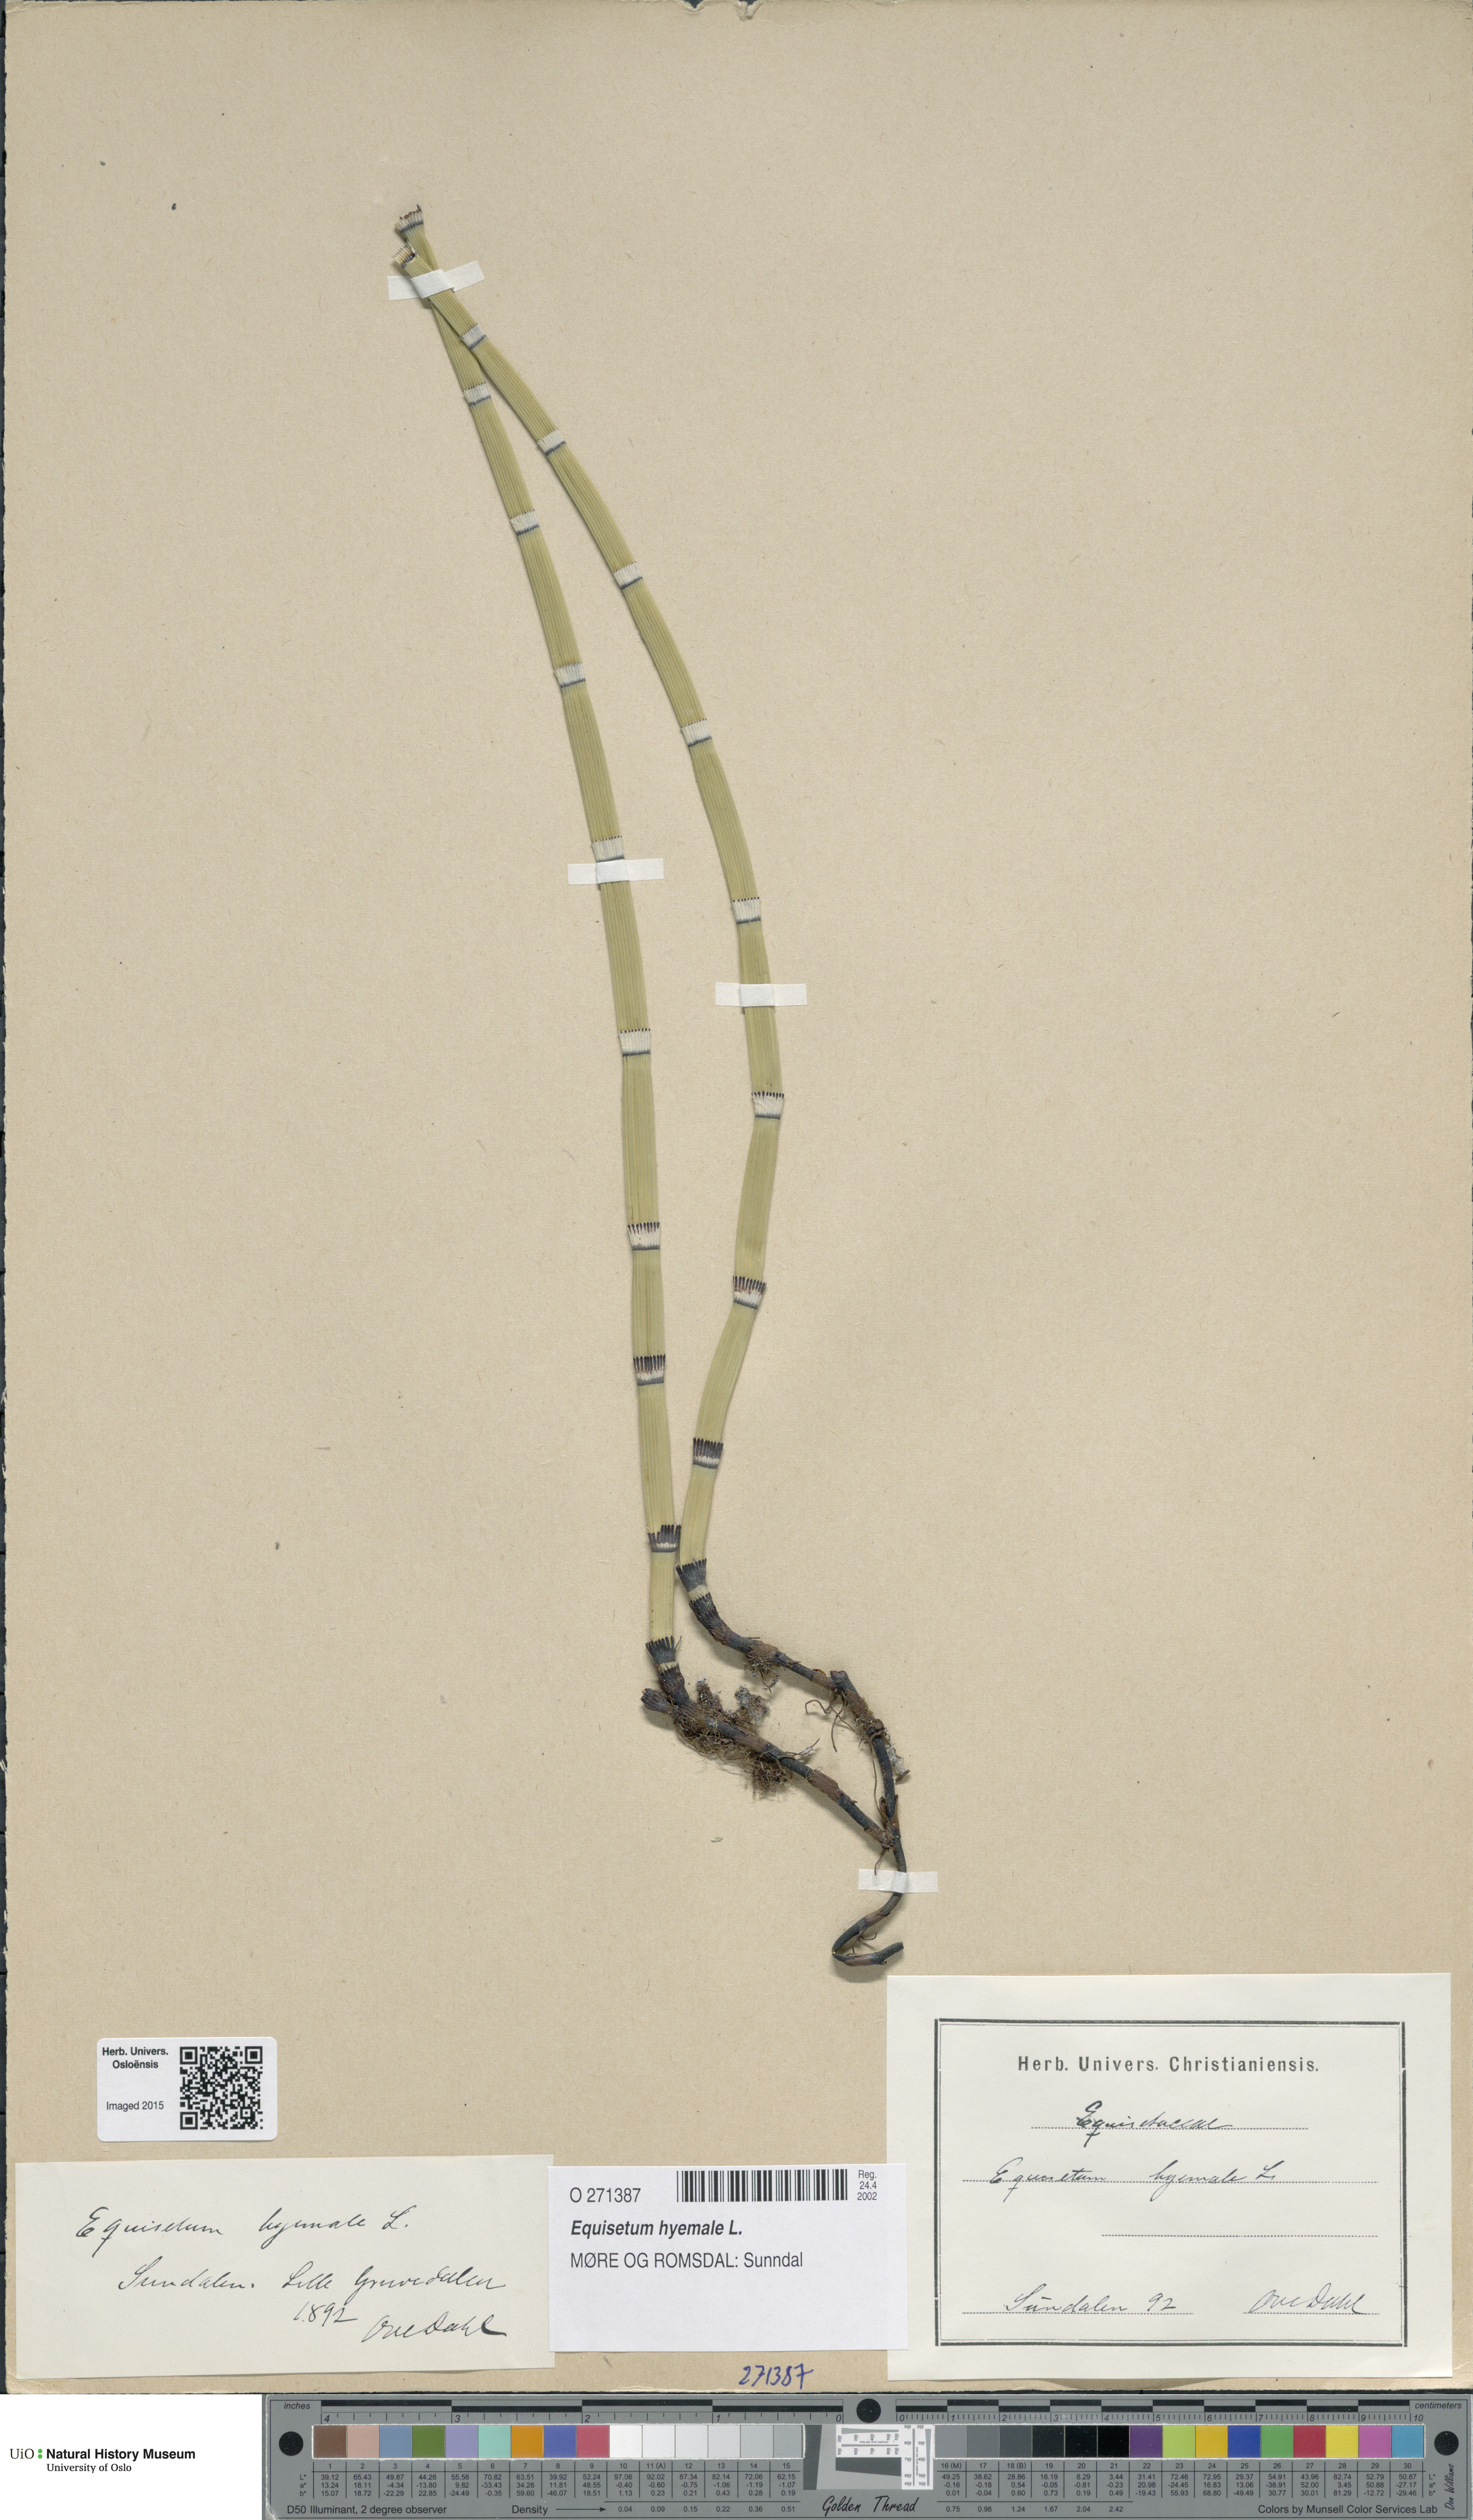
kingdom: Plantae
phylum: Tracheophyta
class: Polypodiopsida
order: Equisetales
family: Equisetaceae
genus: Equisetum
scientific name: Equisetum hyemale
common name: Rough horsetail
